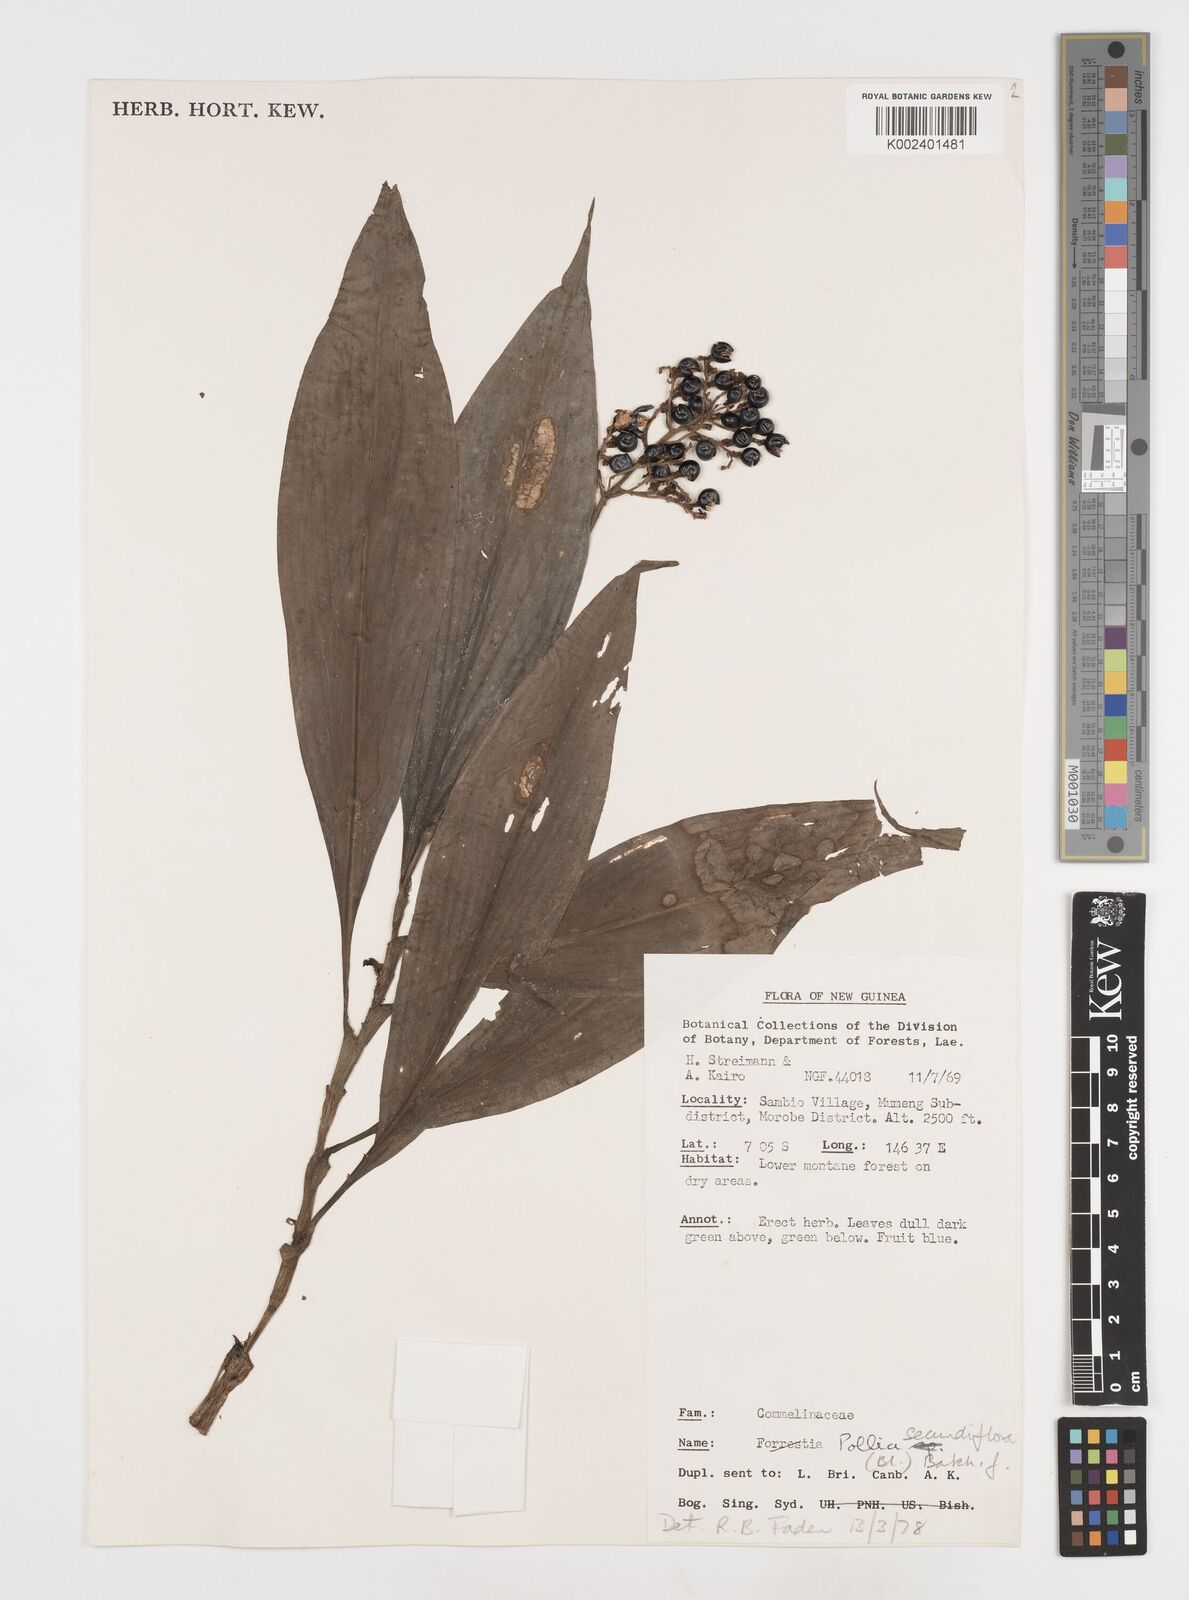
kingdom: Plantae
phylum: Tracheophyta
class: Liliopsida
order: Commelinales
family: Commelinaceae
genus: Pollia
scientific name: Pollia secundiflora
